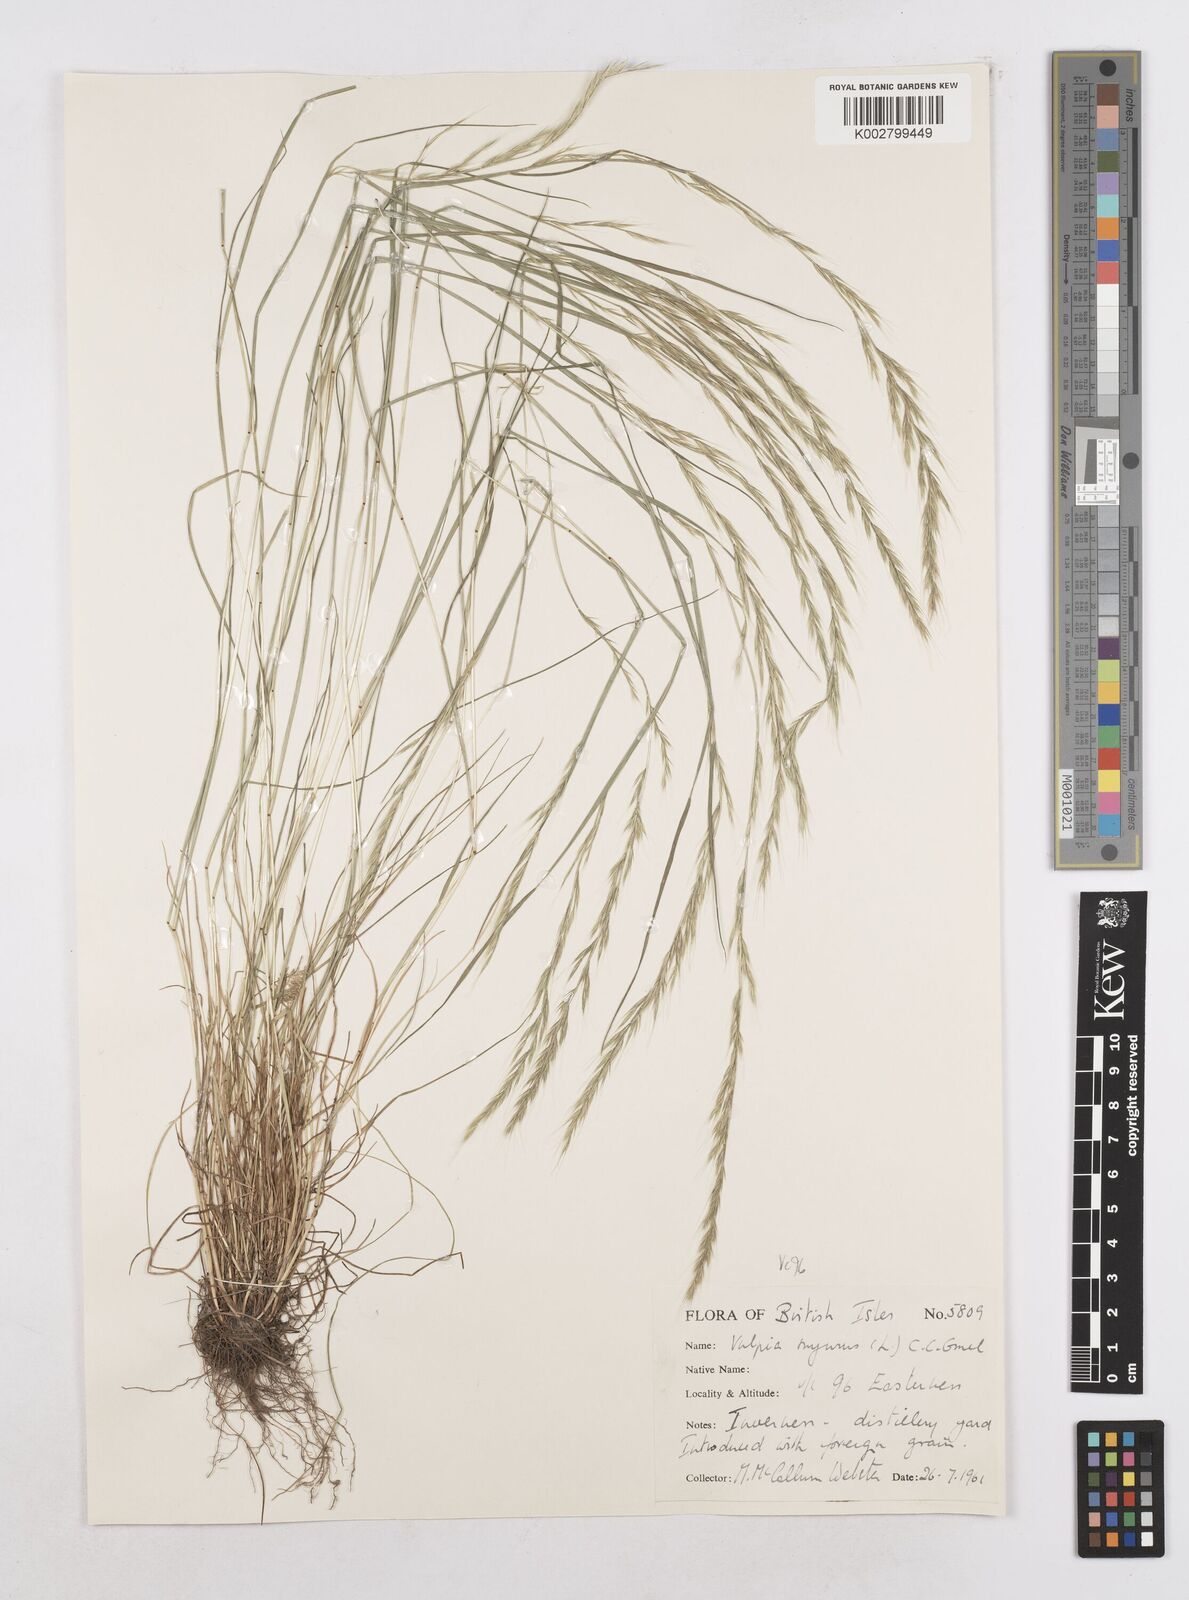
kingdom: Plantae
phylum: Tracheophyta
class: Liliopsida
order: Poales
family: Poaceae
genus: Festuca
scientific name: Festuca myuros
